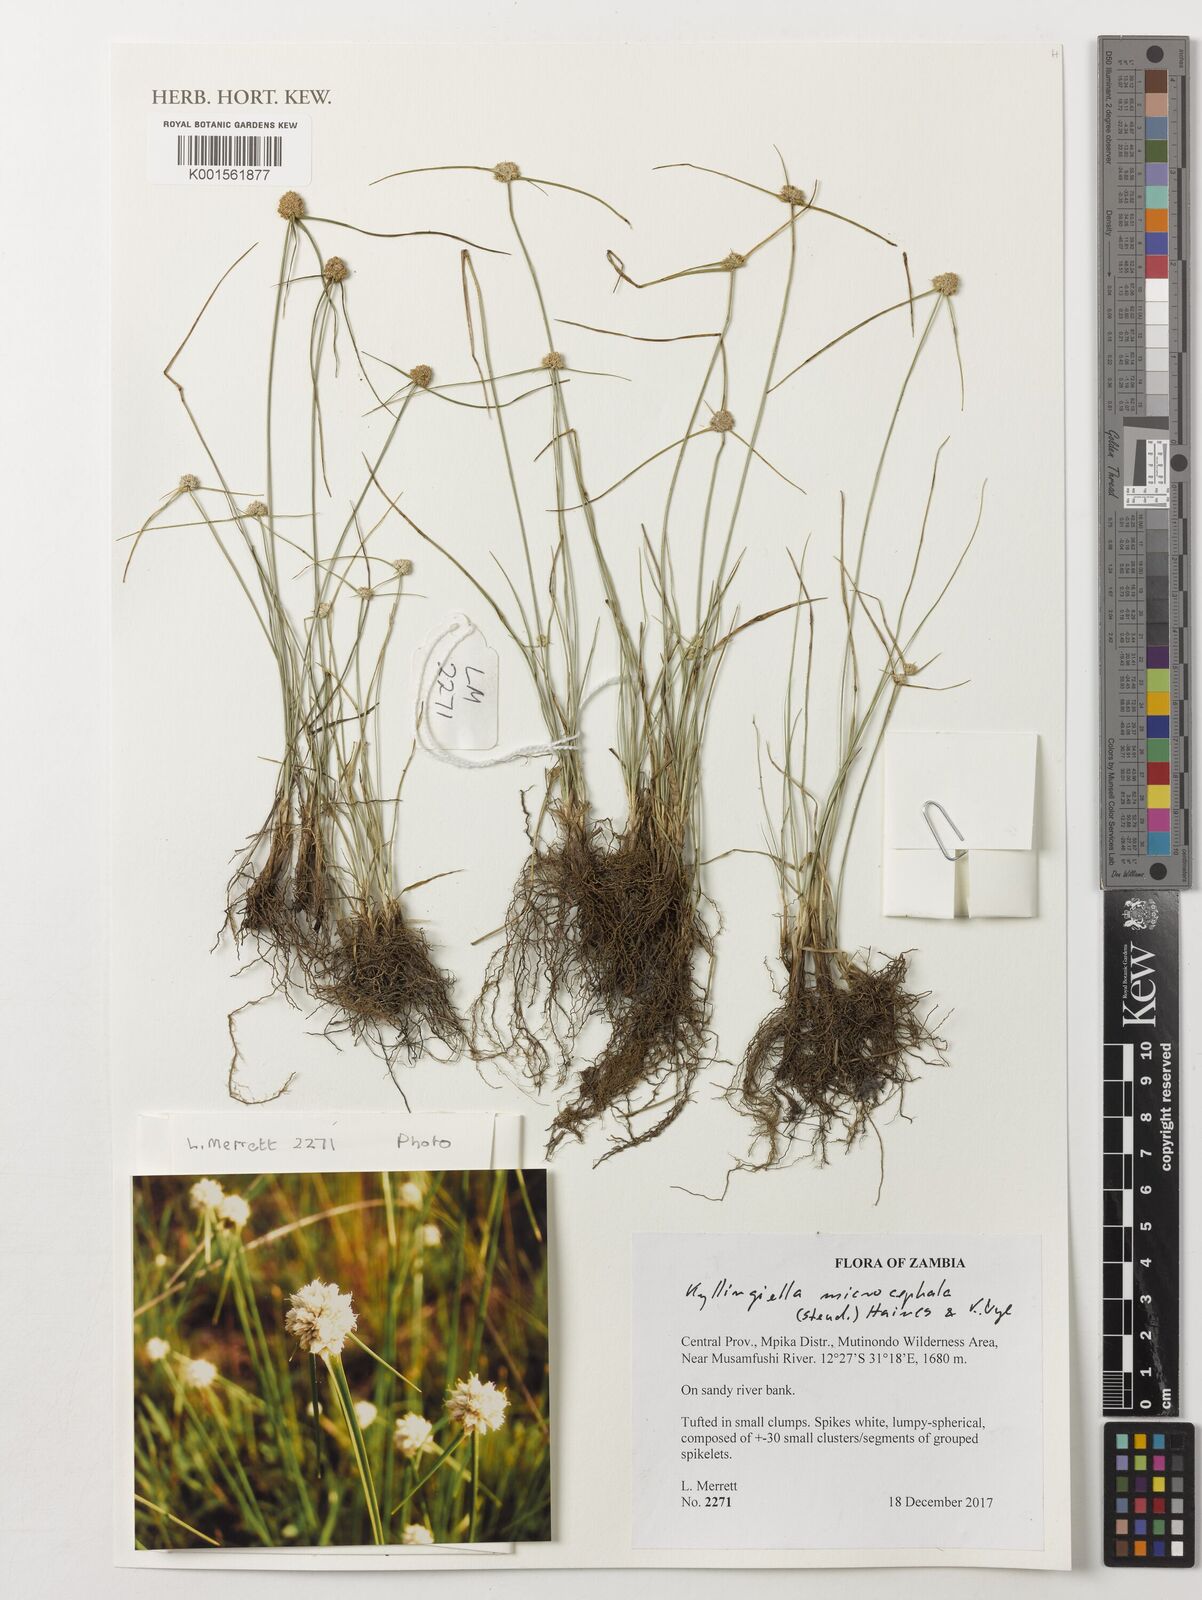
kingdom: Plantae
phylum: Tracheophyta
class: Liliopsida
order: Poales
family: Cyperaceae
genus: Cyperus
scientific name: Cyperus kyllingiella
